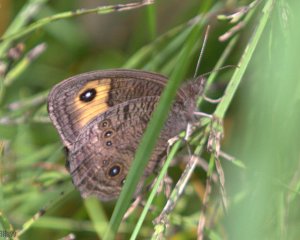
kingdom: Animalia
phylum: Arthropoda
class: Insecta
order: Lepidoptera
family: Nymphalidae
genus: Cercyonis
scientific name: Cercyonis pegala
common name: Common Wood-Nymph
